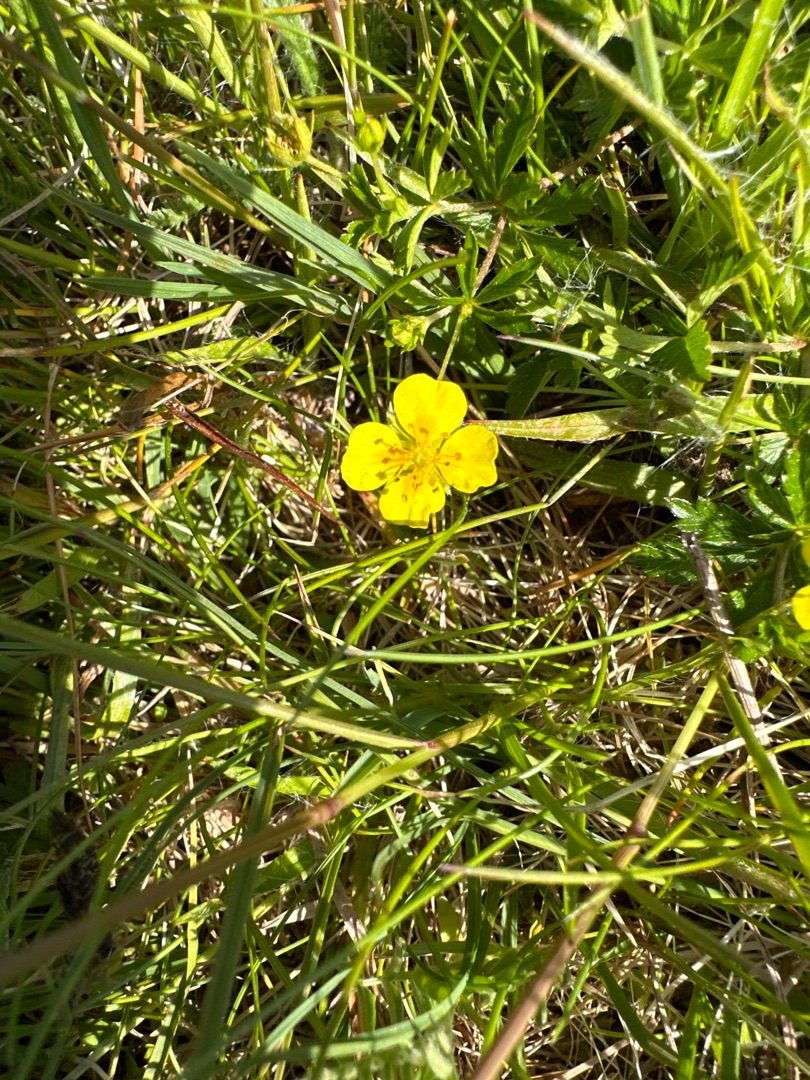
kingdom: Plantae
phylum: Tracheophyta
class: Magnoliopsida
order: Rosales
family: Rosaceae
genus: Potentilla
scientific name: Potentilla erecta
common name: Tormentil
